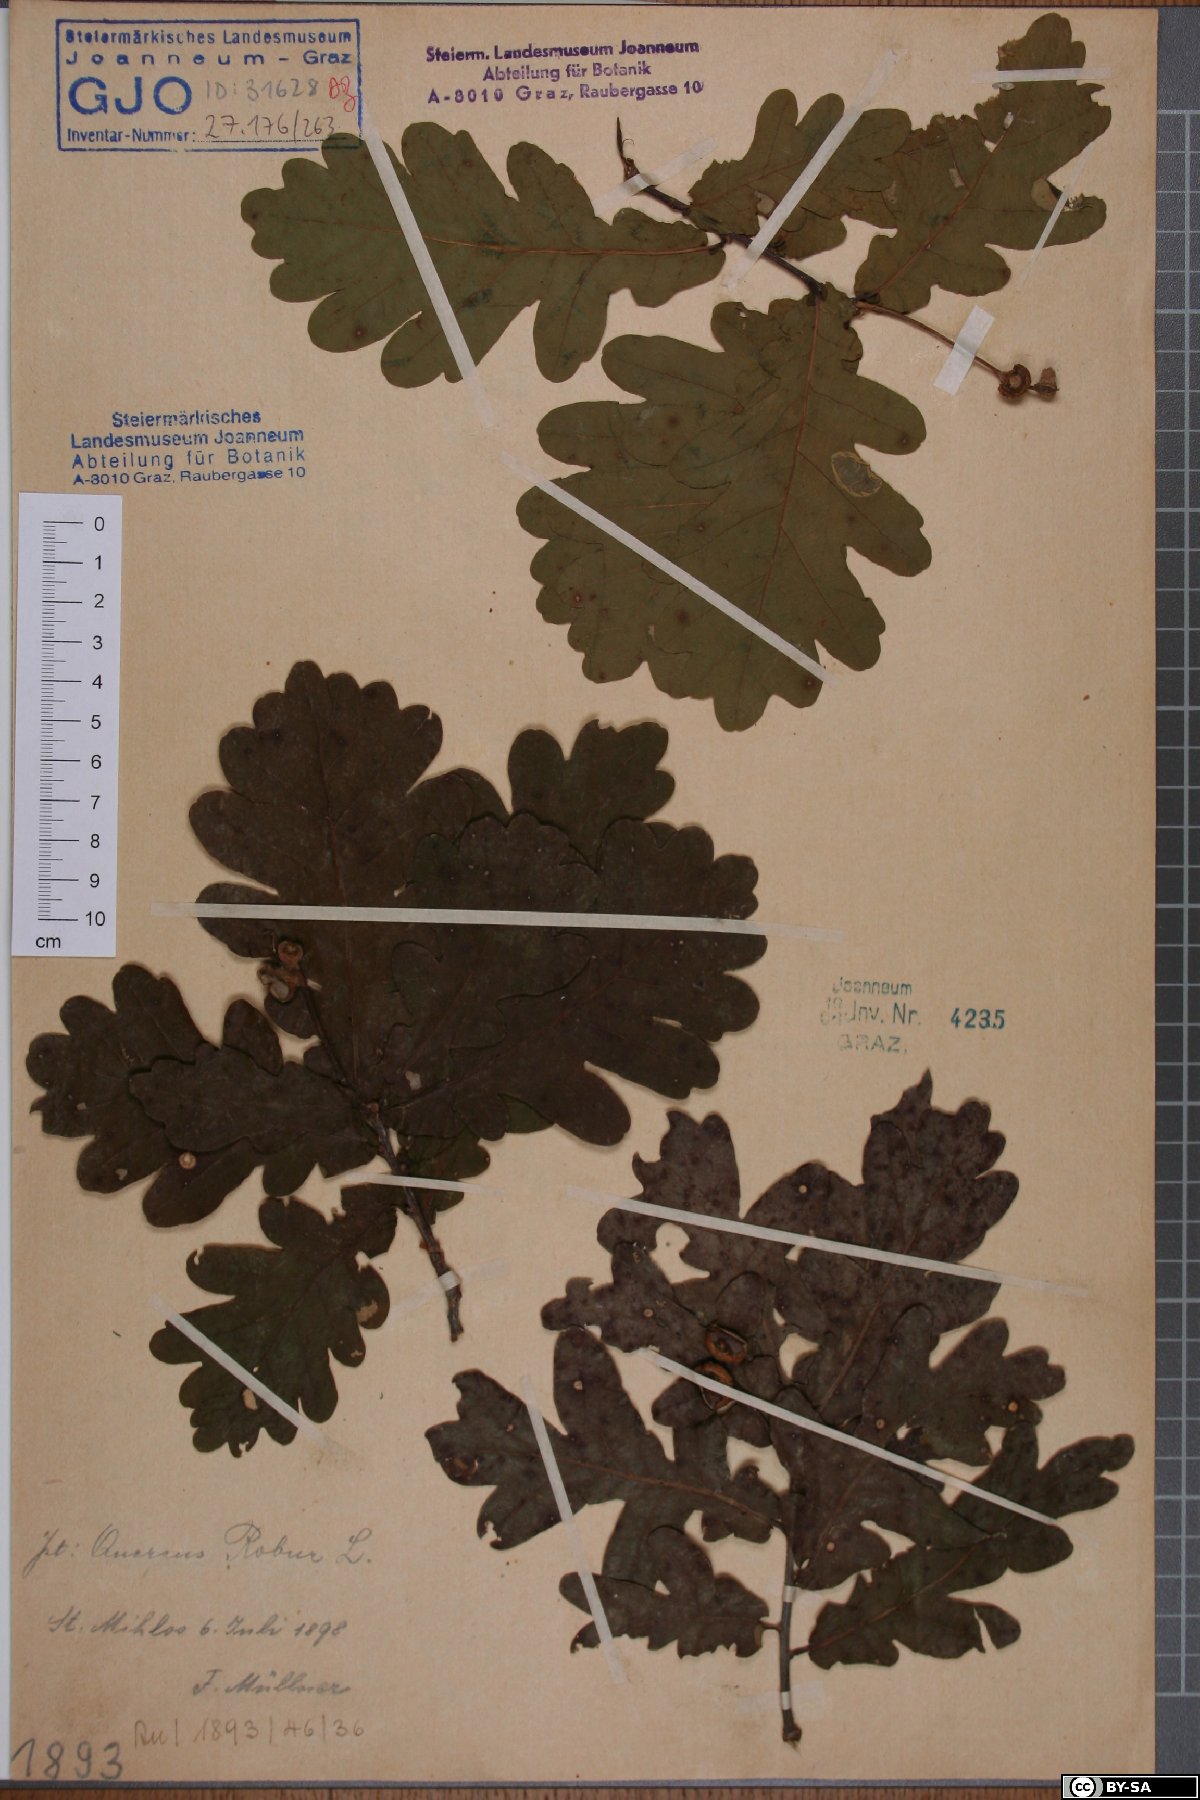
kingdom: Plantae
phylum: Tracheophyta
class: Magnoliopsida
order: Fagales
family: Fagaceae
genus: Quercus
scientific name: Quercus robur
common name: Pedunculate oak
